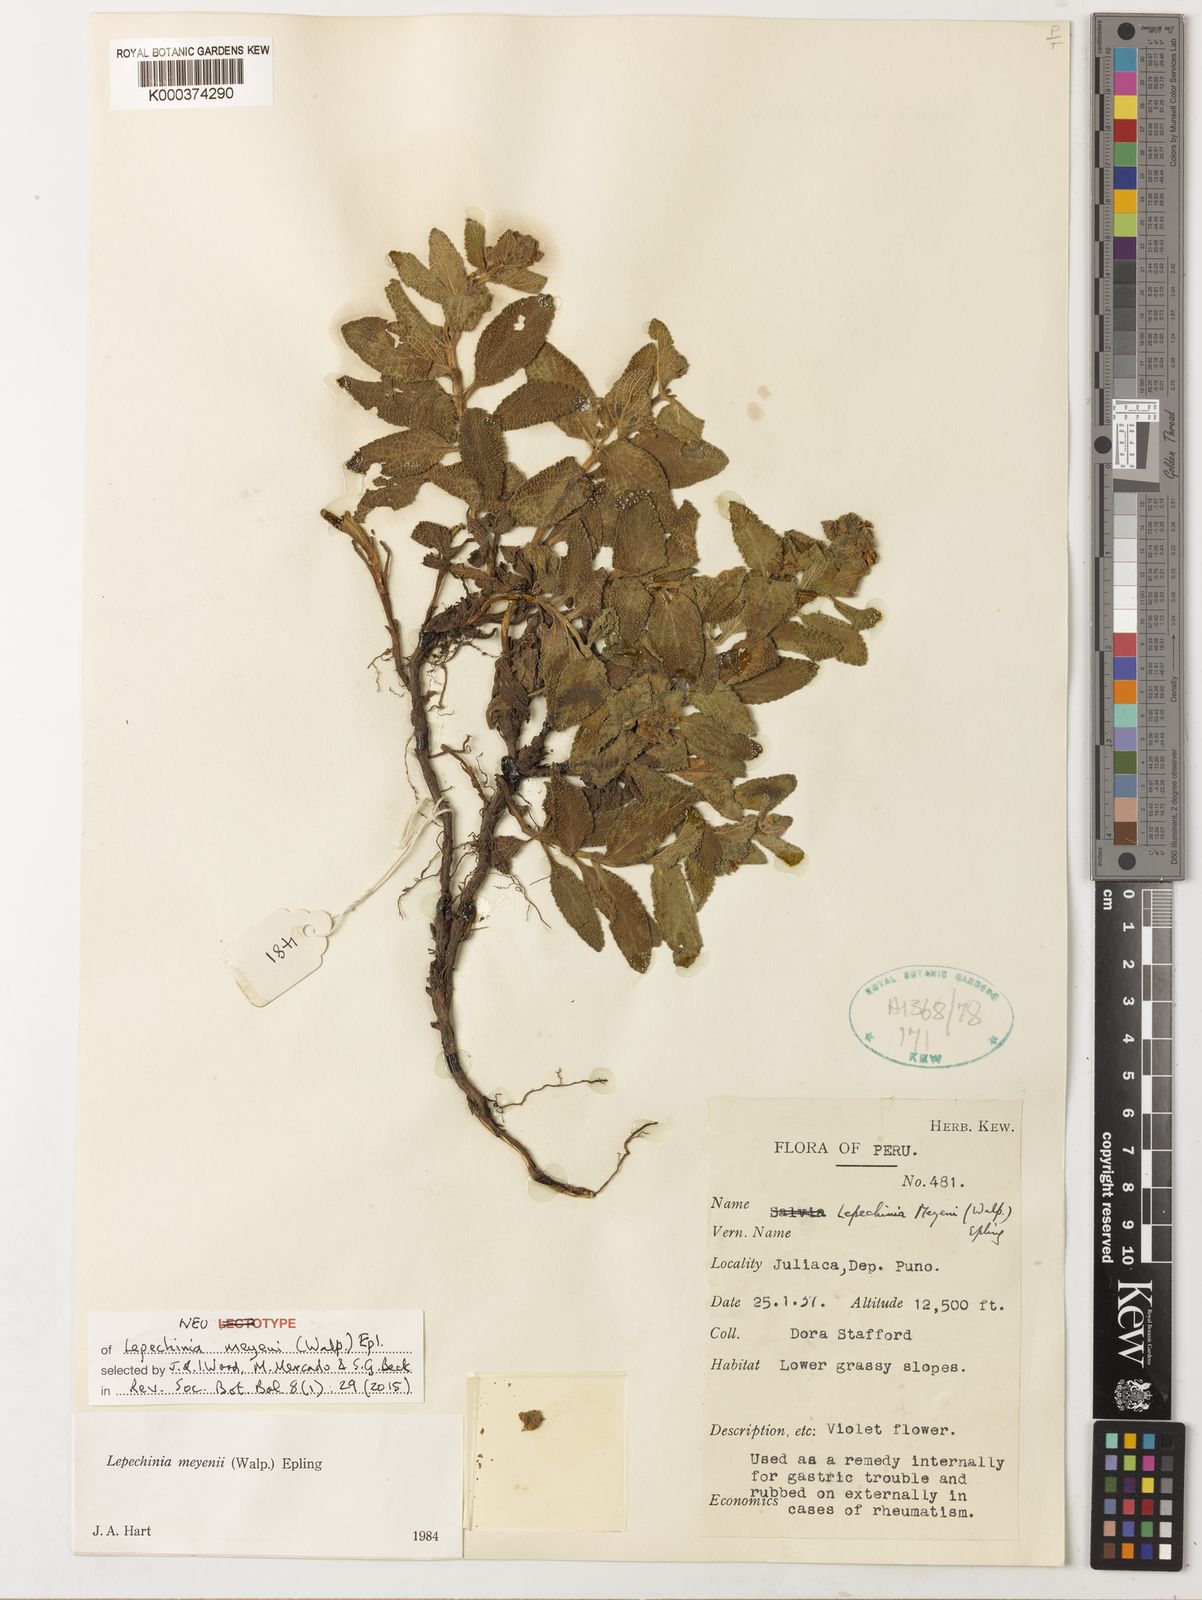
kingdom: Plantae
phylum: Tracheophyta
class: Magnoliopsida
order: Lamiales
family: Lamiaceae
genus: Lepechinia
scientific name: Lepechinia meyenii
